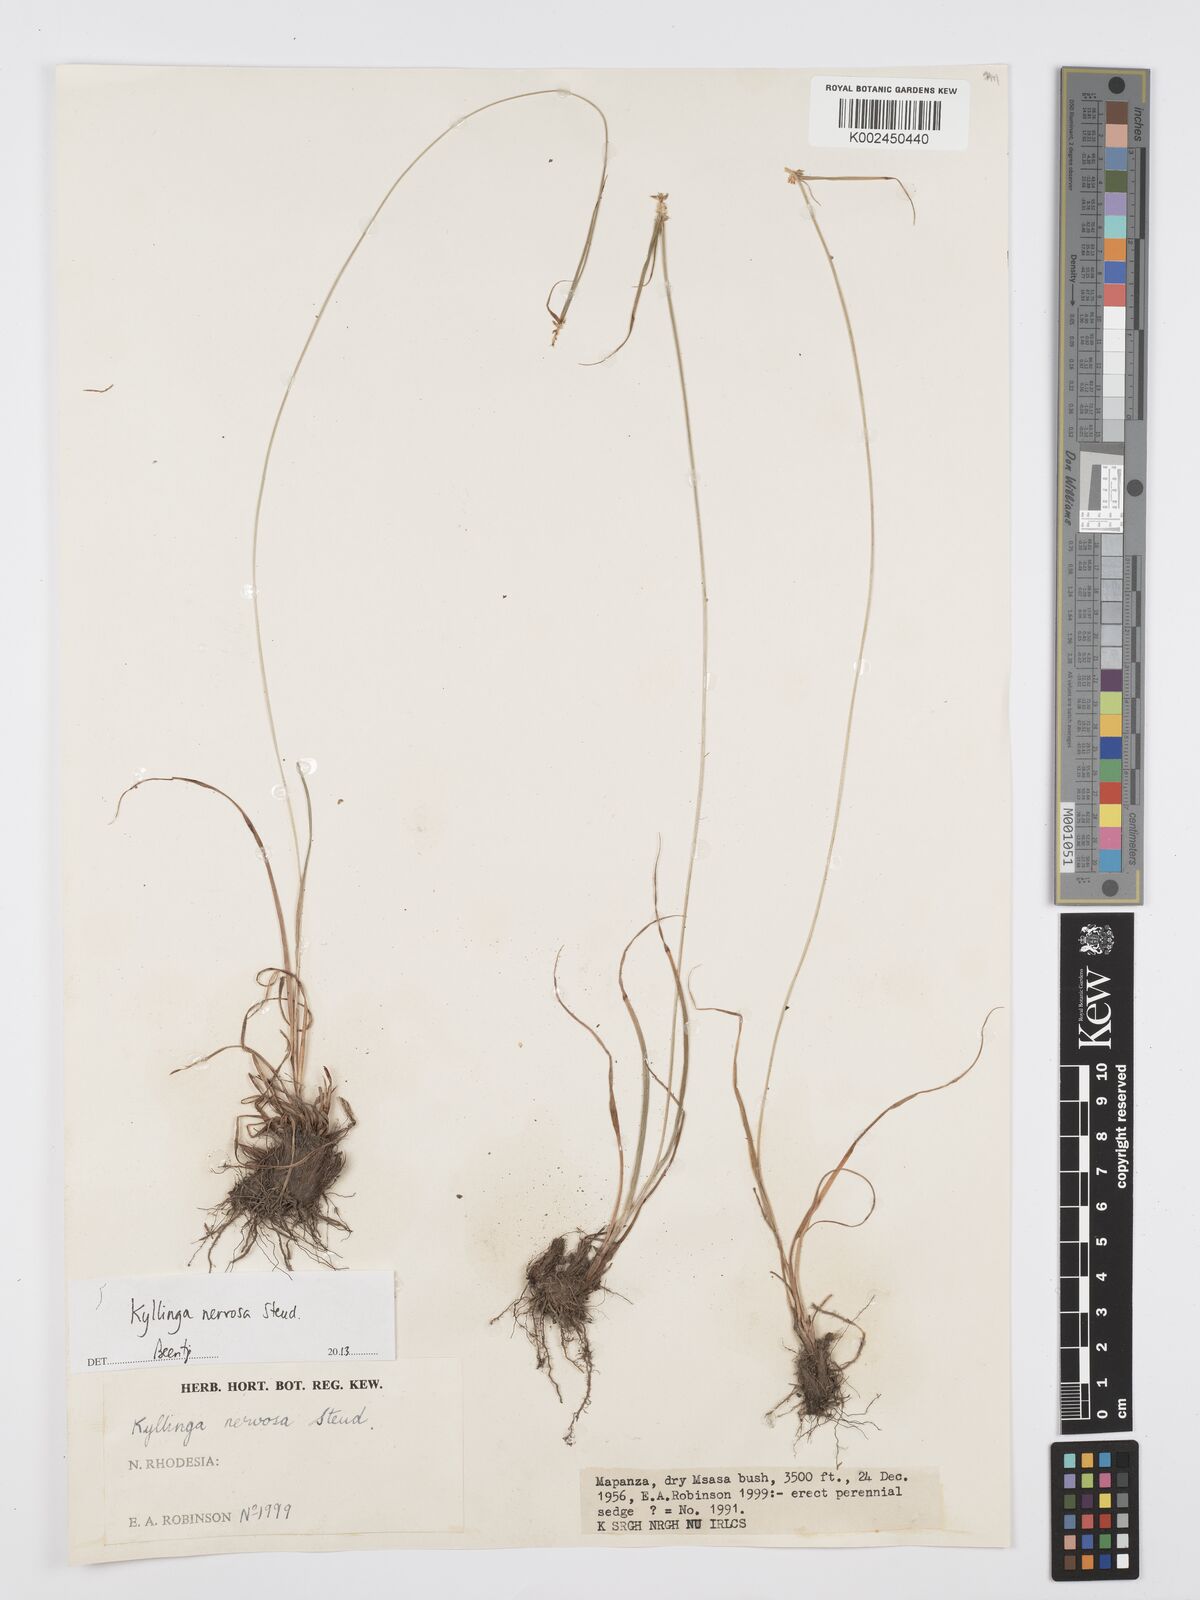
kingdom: Plantae
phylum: Tracheophyta
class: Liliopsida
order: Poales
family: Cyperaceae
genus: Cyperus
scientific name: Cyperus
